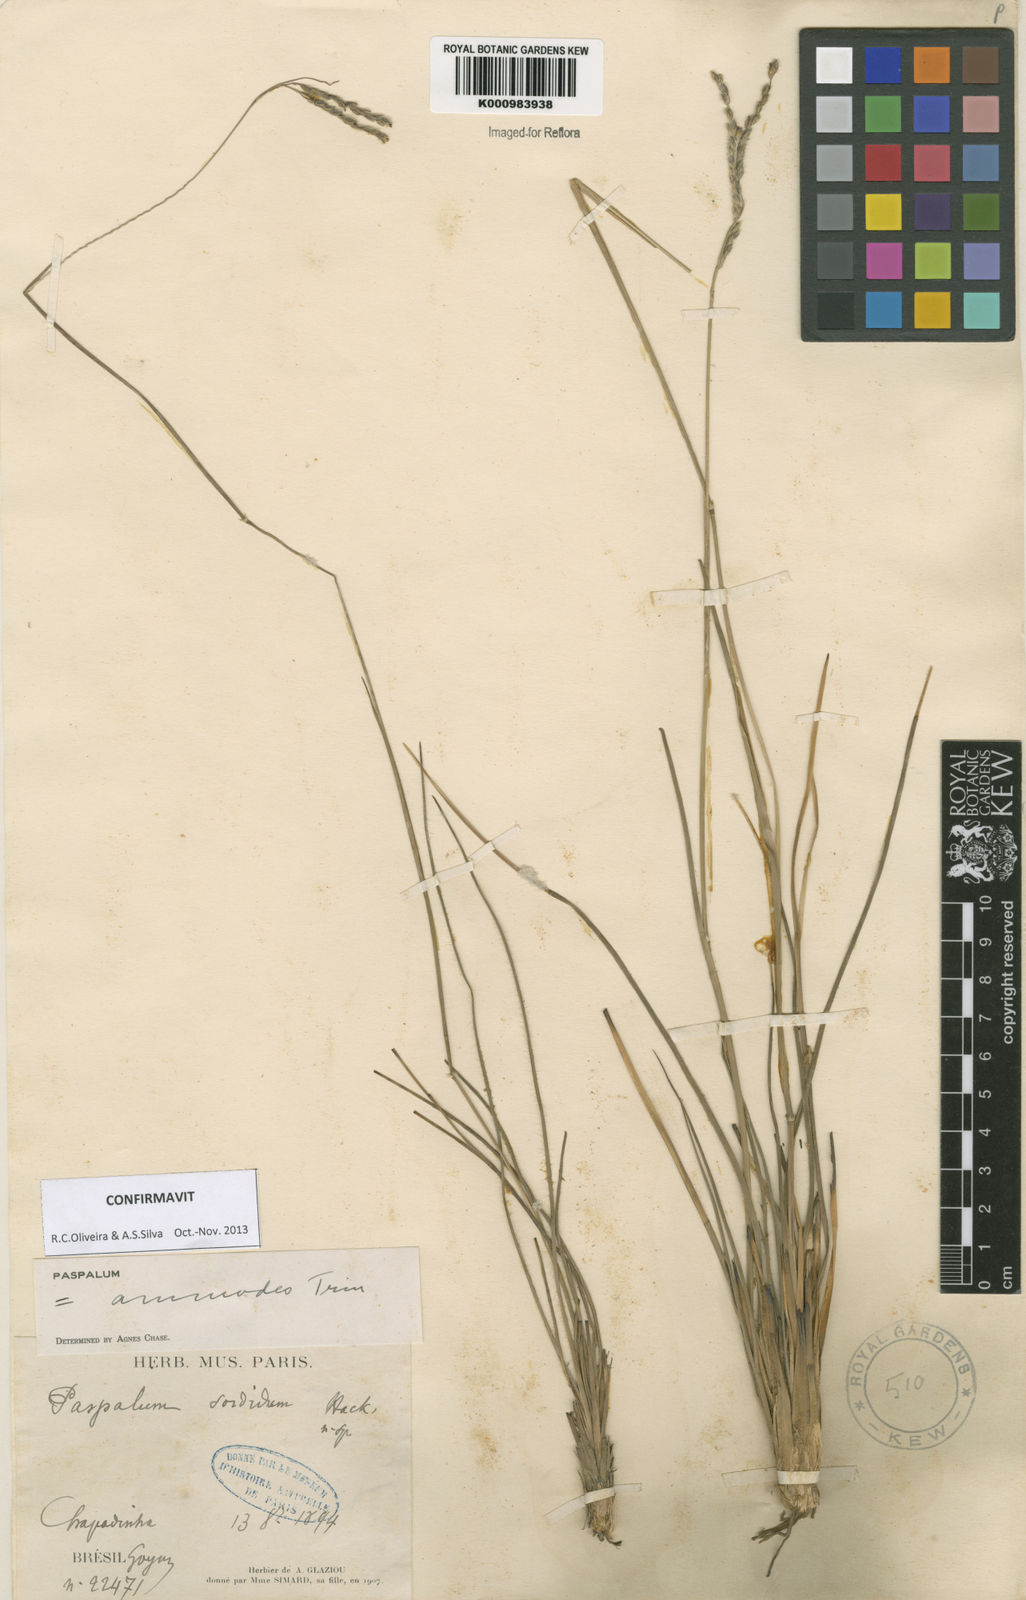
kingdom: Plantae
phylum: Tracheophyta
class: Liliopsida
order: Poales
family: Poaceae
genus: Paspalum
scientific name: Paspalum ammodes
